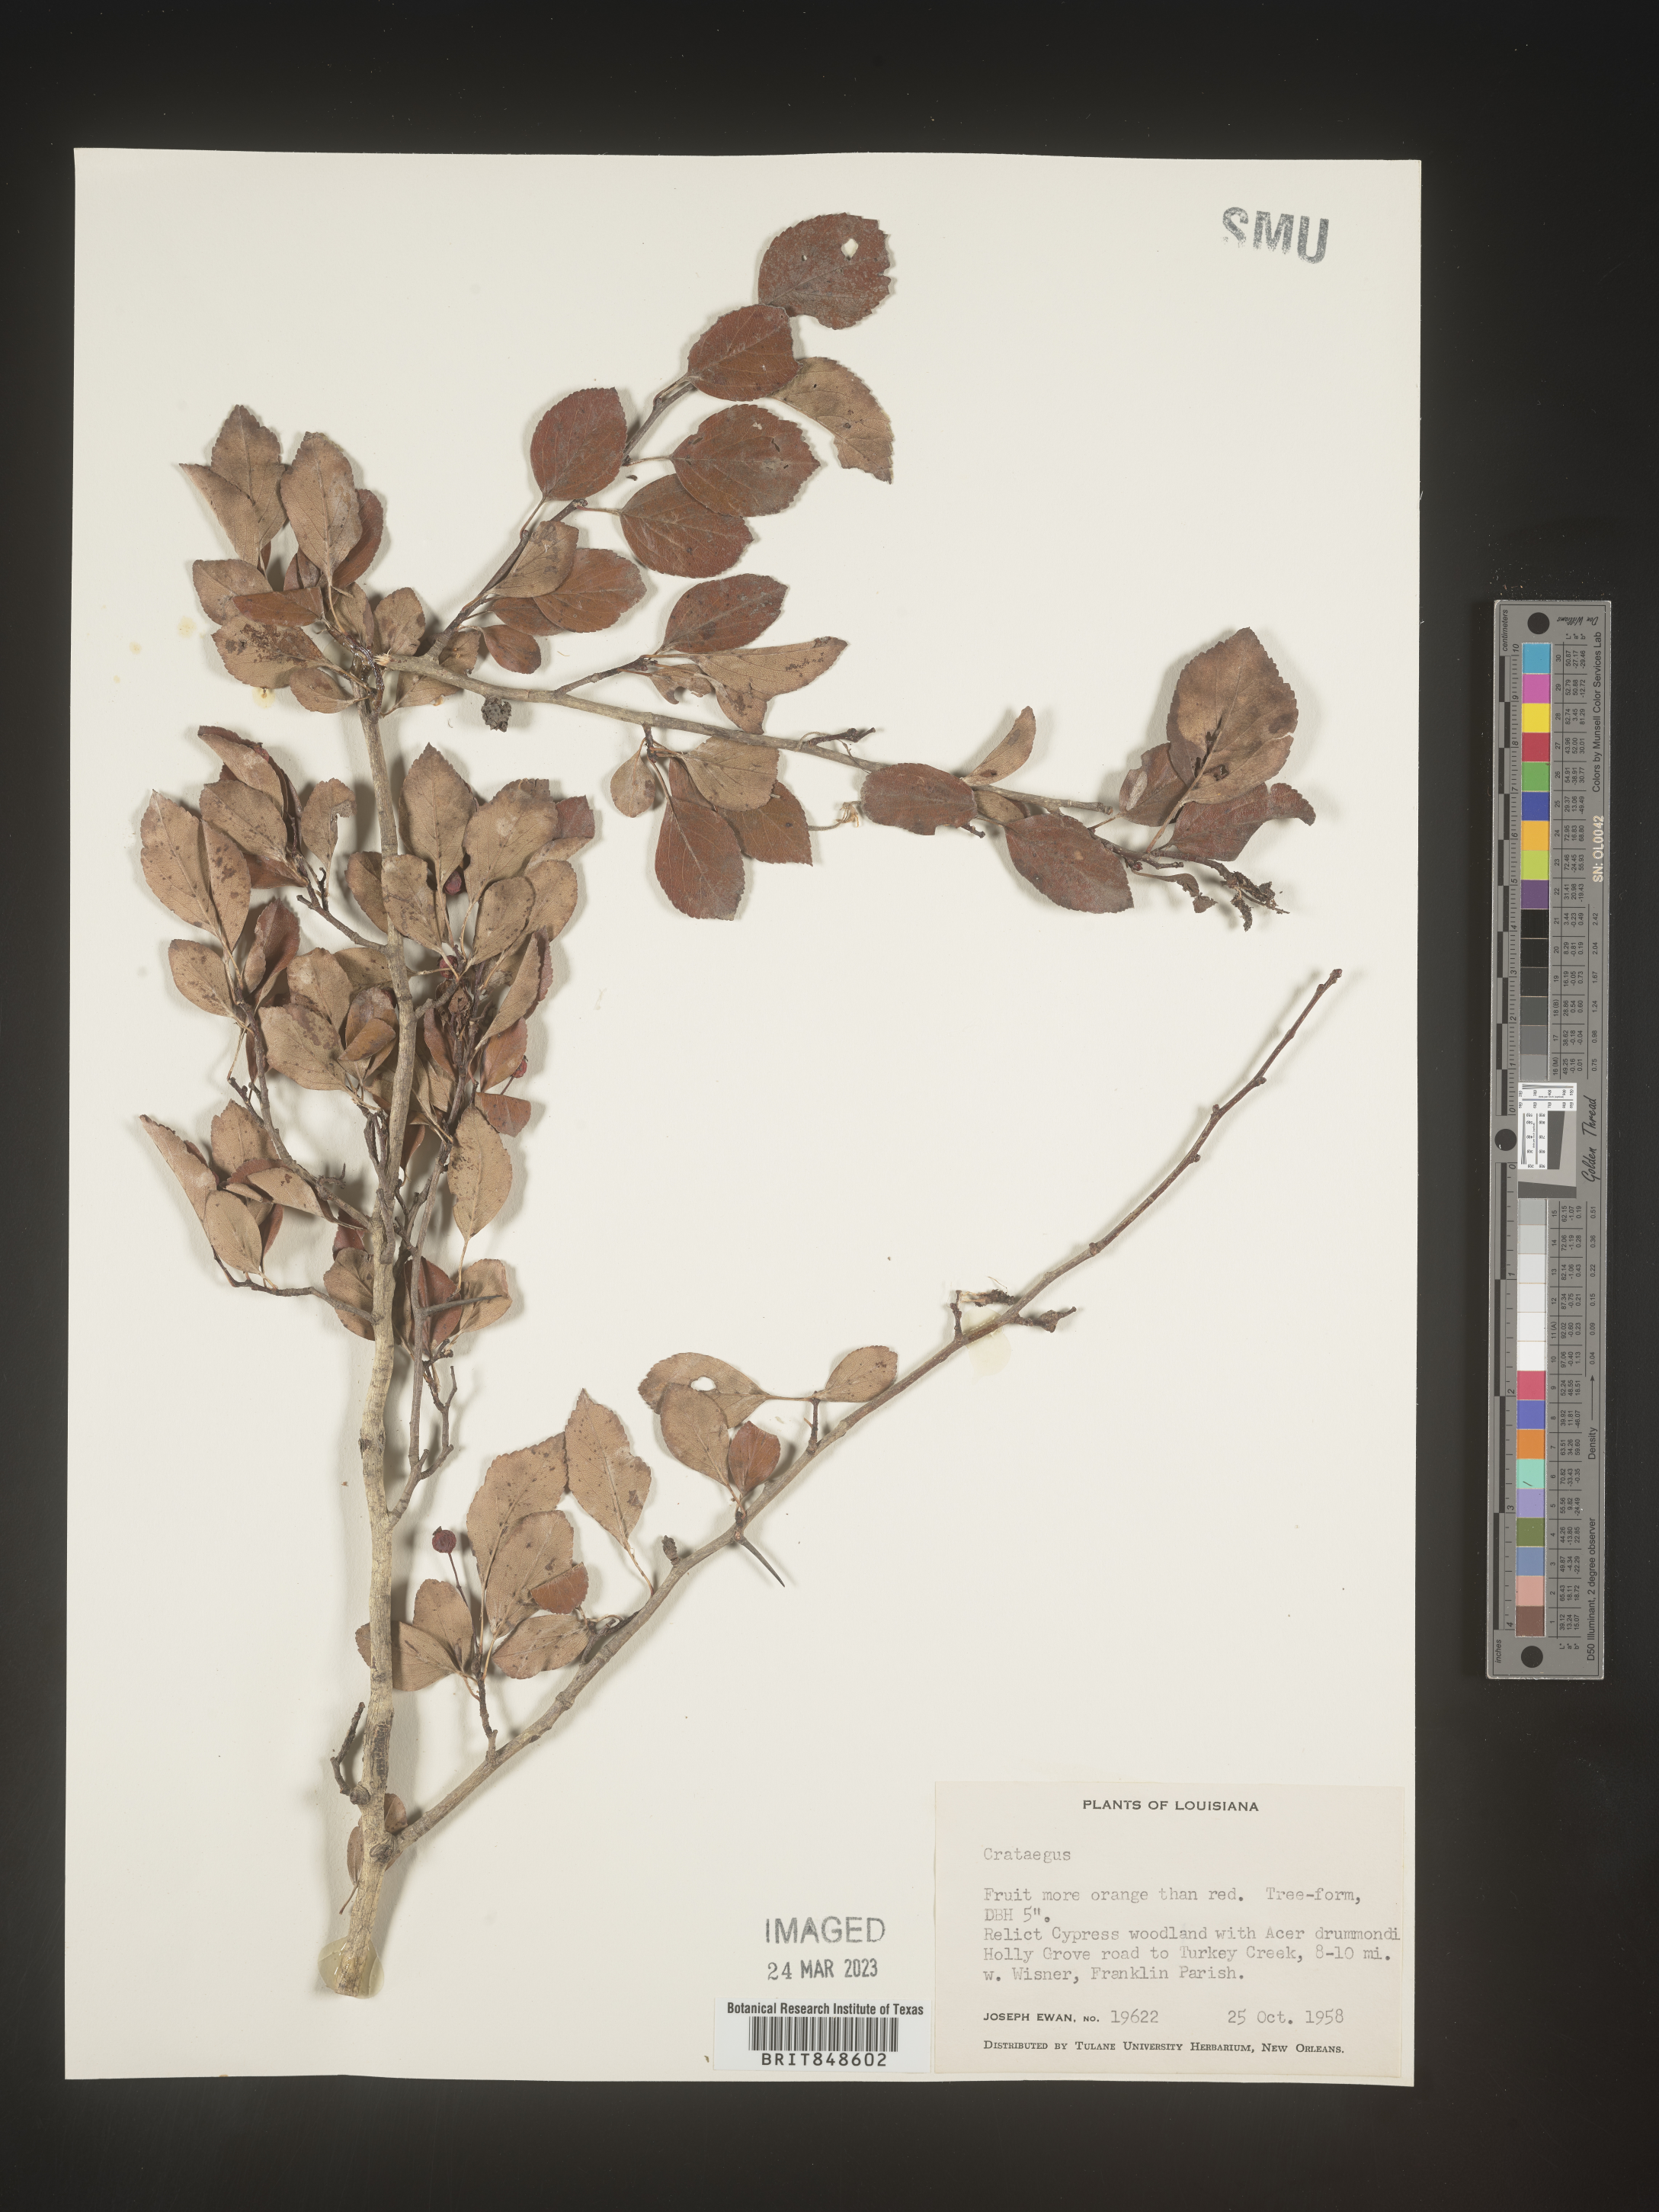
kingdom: Plantae
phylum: Tracheophyta
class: Magnoliopsida
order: Rosales
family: Rosaceae
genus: Crataegus
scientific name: Crataegus
